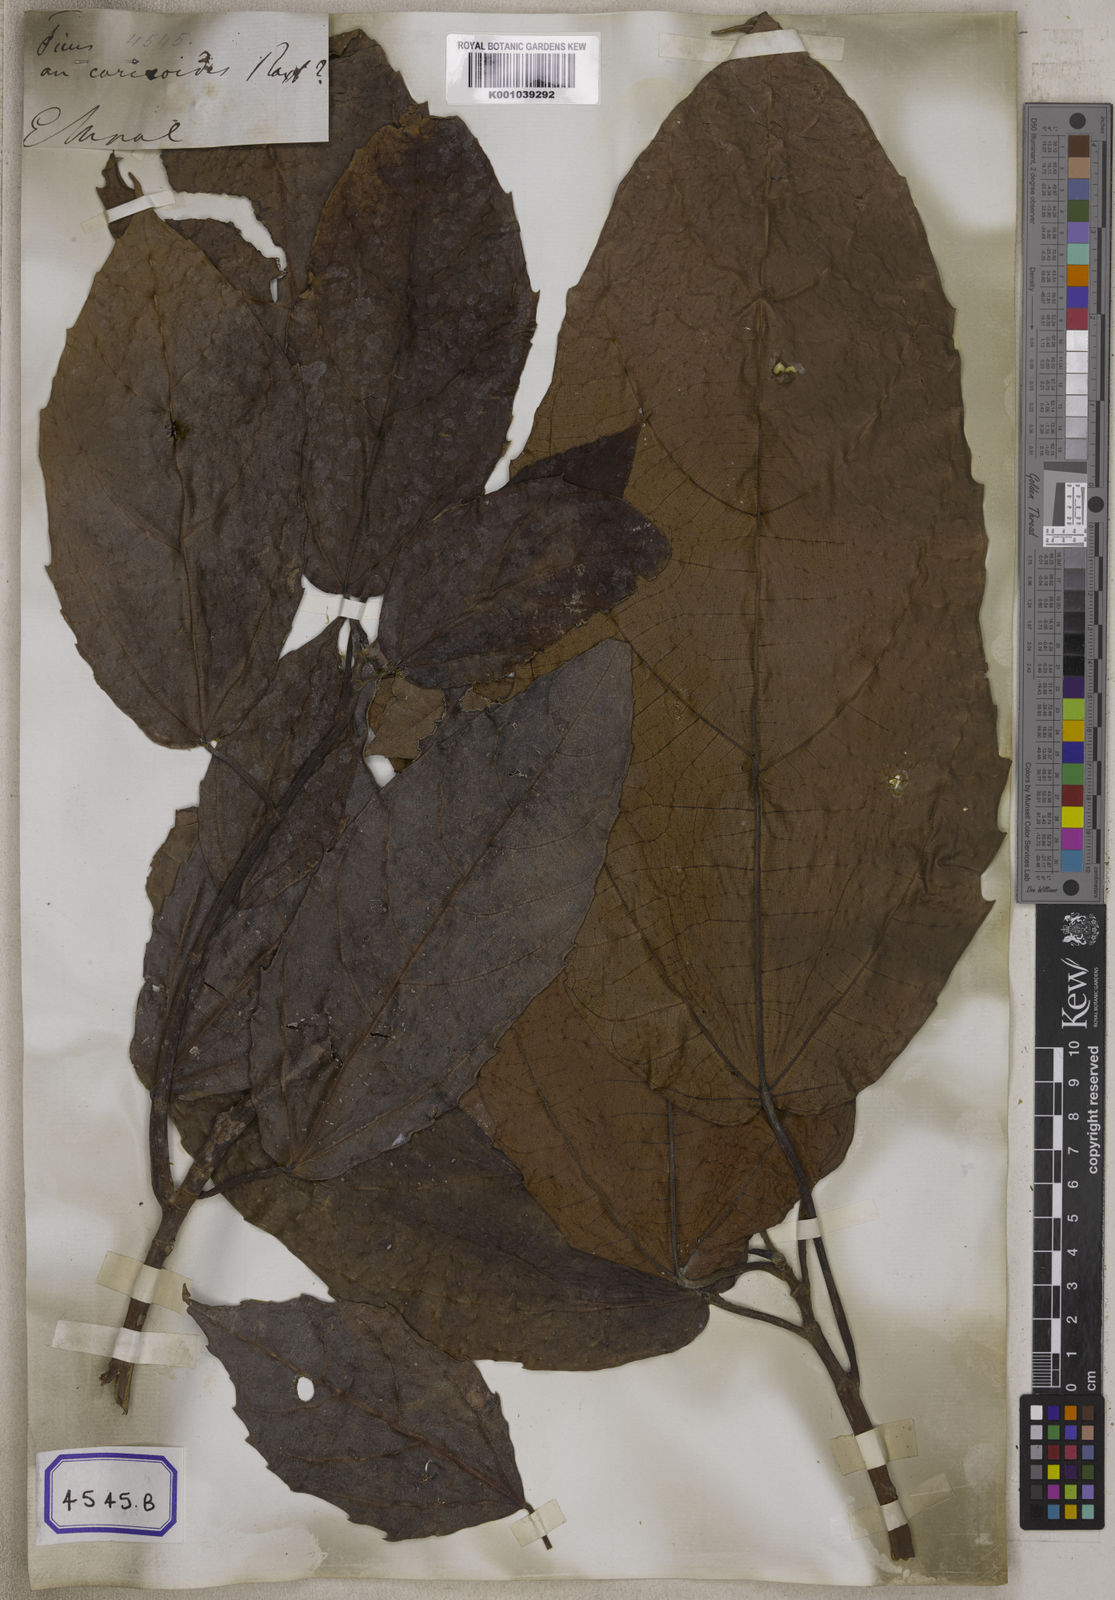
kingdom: Plantae
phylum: Tracheophyta
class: Magnoliopsida
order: Rosales
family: Moraceae
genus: Ficus
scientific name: Ficus auriculata
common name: Roxburgh fig
